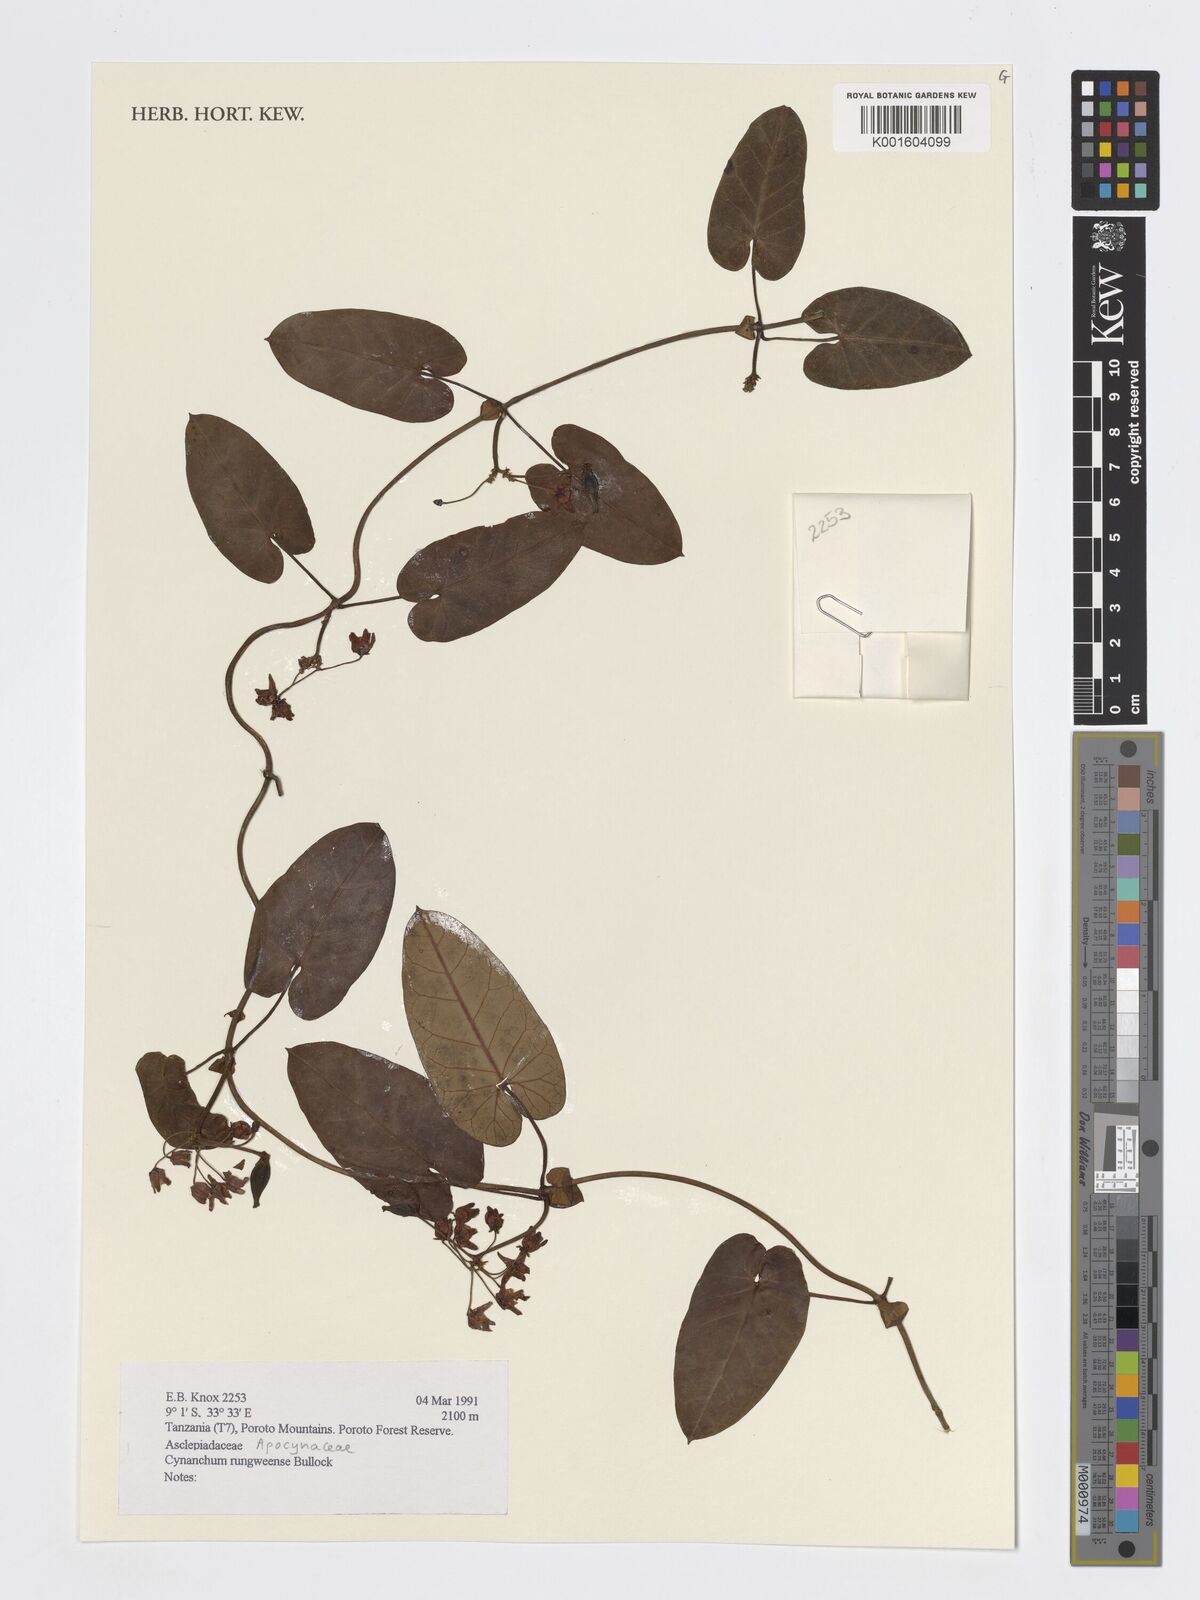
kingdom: Plantae
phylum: Tracheophyta
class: Magnoliopsida
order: Gentianales
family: Apocynaceae
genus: Cynanchum
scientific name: Cynanchum rungweense
